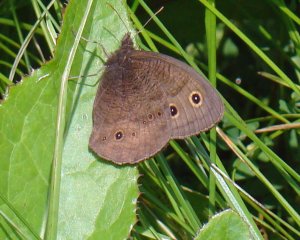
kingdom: Animalia
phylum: Arthropoda
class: Insecta
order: Lepidoptera
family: Nymphalidae
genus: Cercyonis
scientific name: Cercyonis pegala
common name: Common Wood-Nymph
